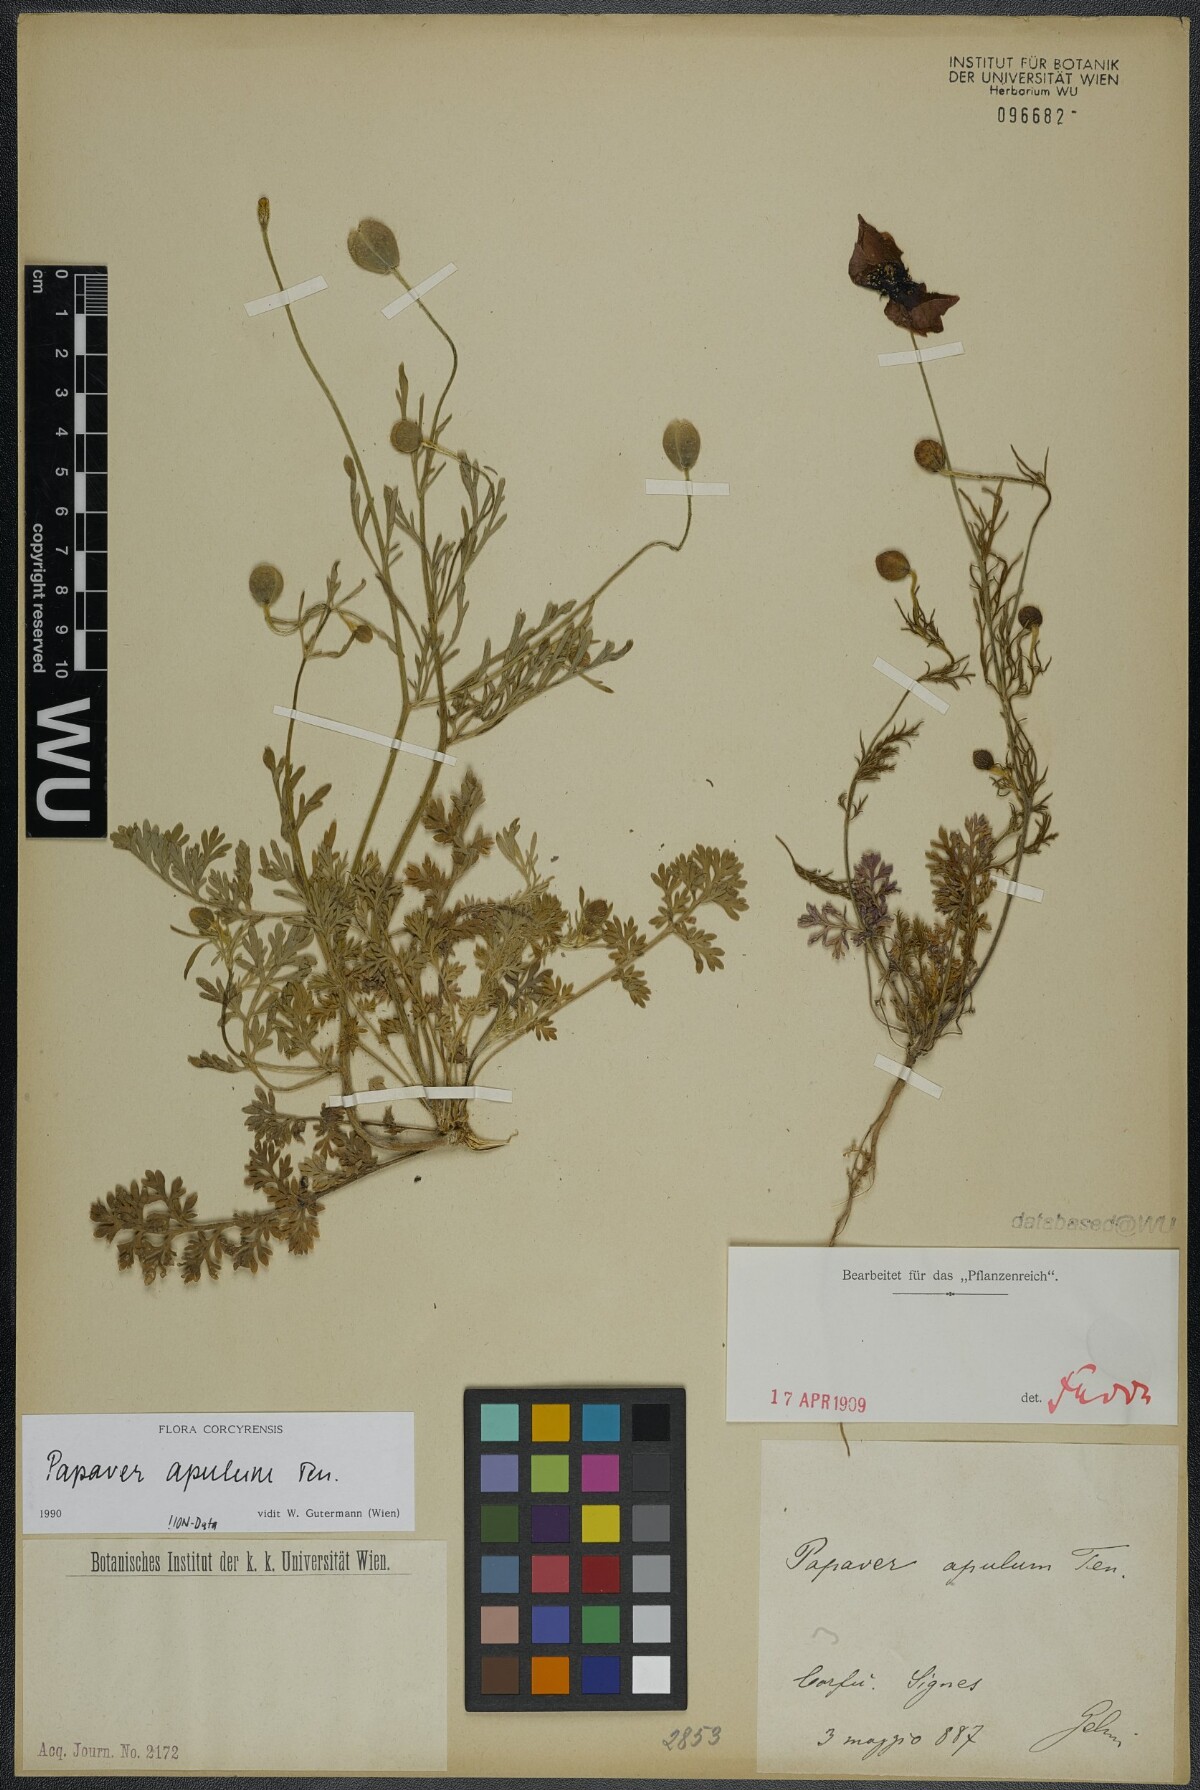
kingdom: Plantae
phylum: Tracheophyta
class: Magnoliopsida
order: Ranunculales
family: Papaveraceae
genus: Roemeria
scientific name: Roemeria apula
